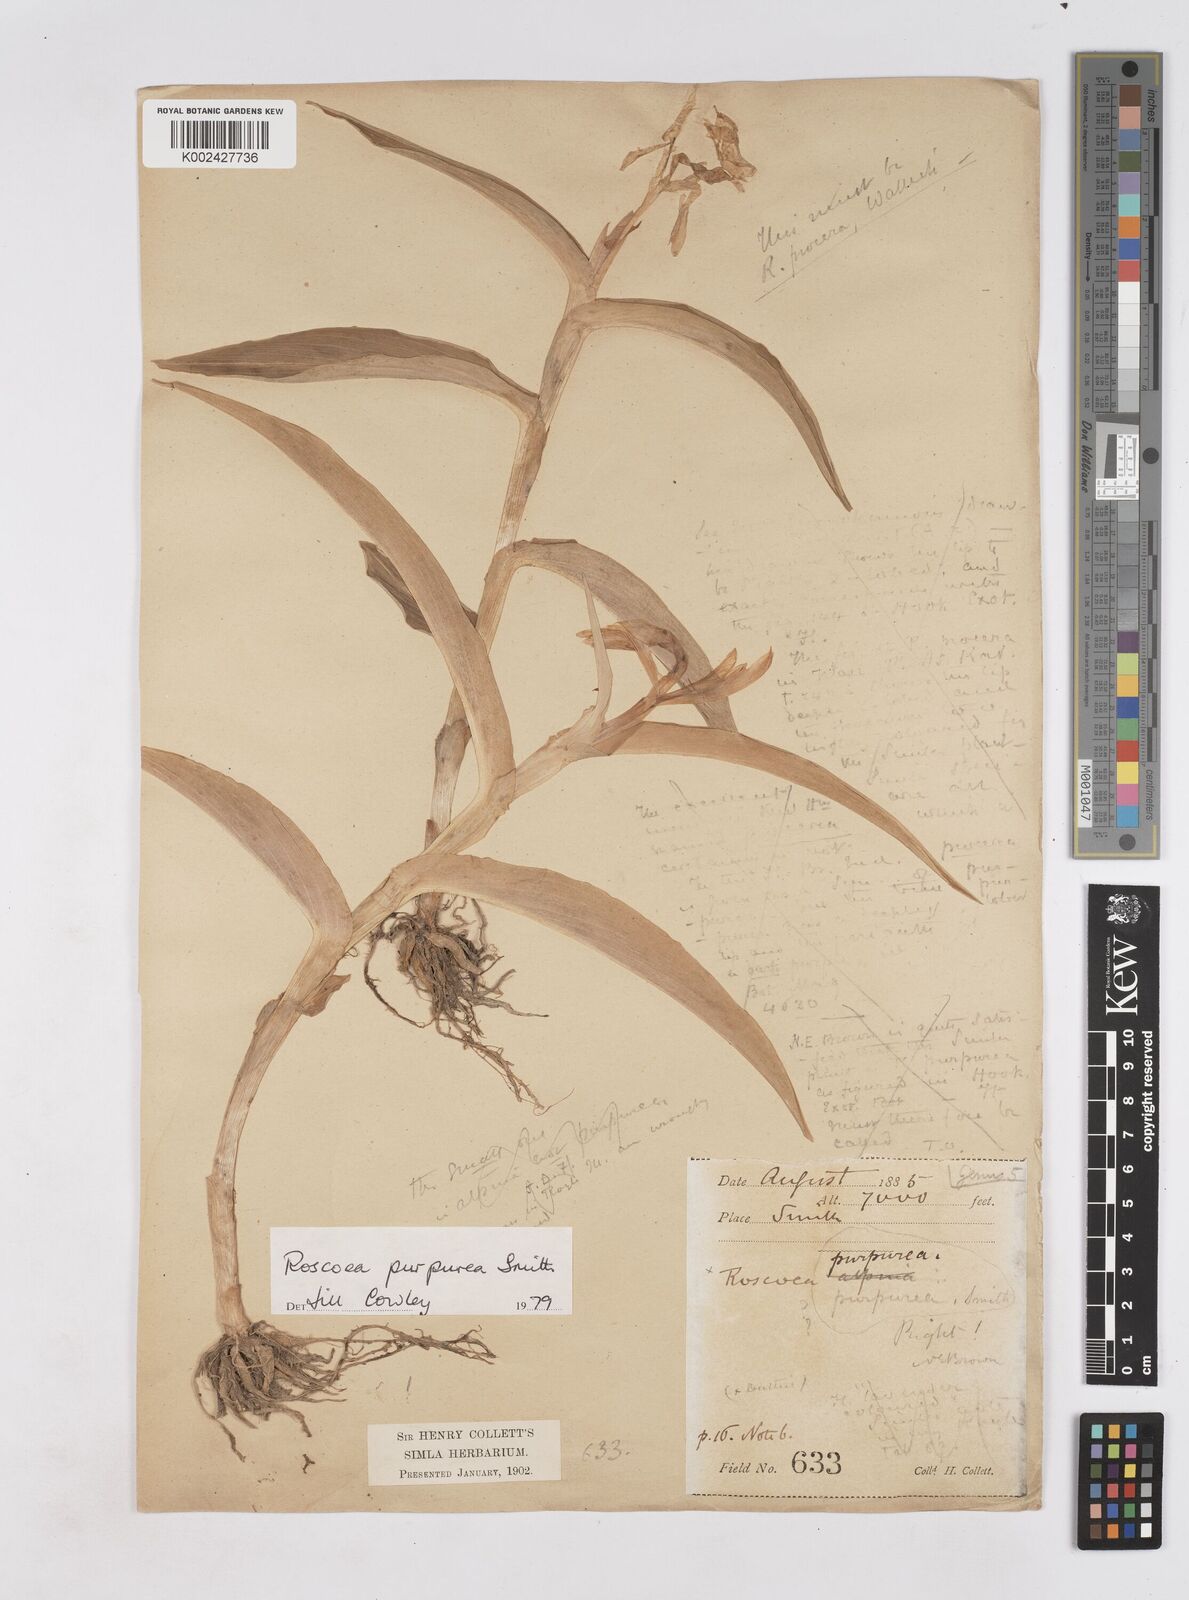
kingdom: Plantae
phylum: Tracheophyta
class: Liliopsida
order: Zingiberales
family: Zingiberaceae
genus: Roscoea
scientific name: Roscoea purpurea
